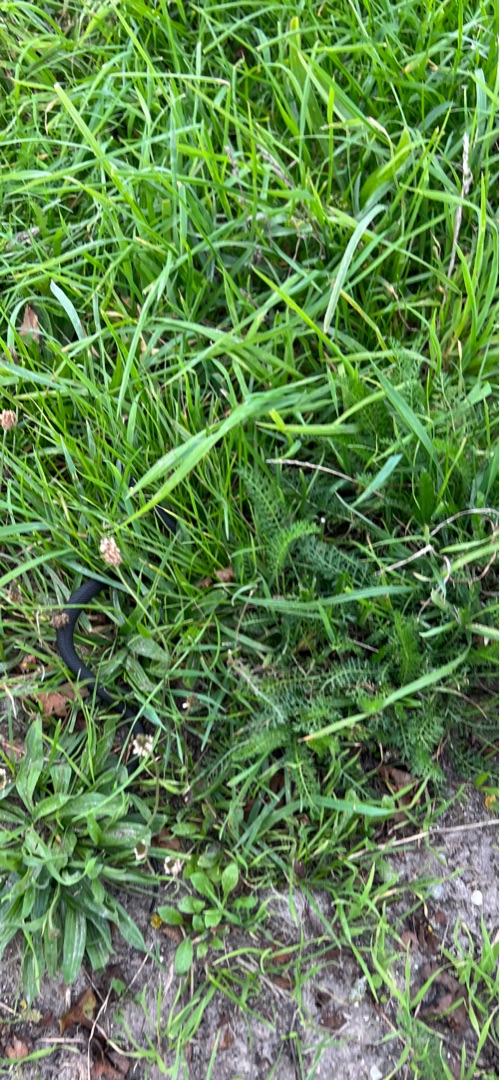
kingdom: Animalia
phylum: Chordata
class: Squamata
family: Colubridae
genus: Natrix
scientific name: Natrix natrix
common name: Snog
